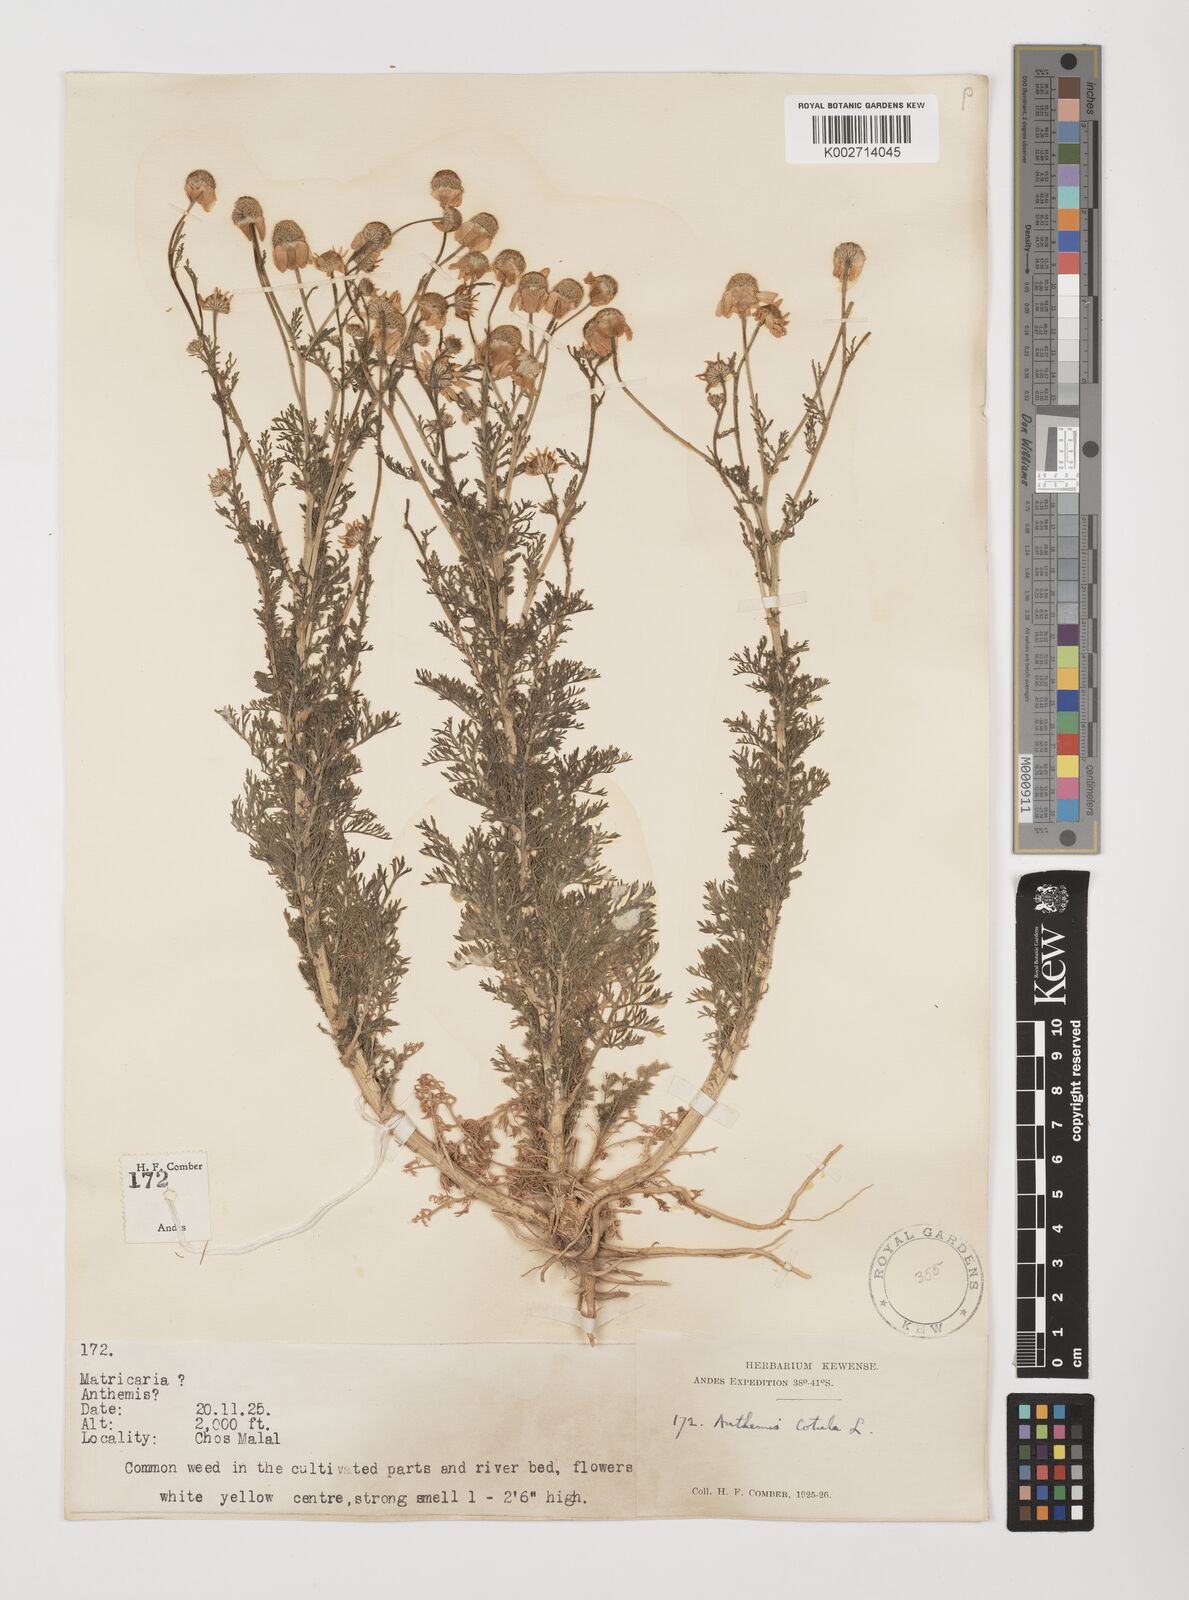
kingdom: Plantae
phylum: Tracheophyta
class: Magnoliopsida
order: Asterales
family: Asteraceae
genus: Anthemis
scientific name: Anthemis cotula
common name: Stinking chamomile
